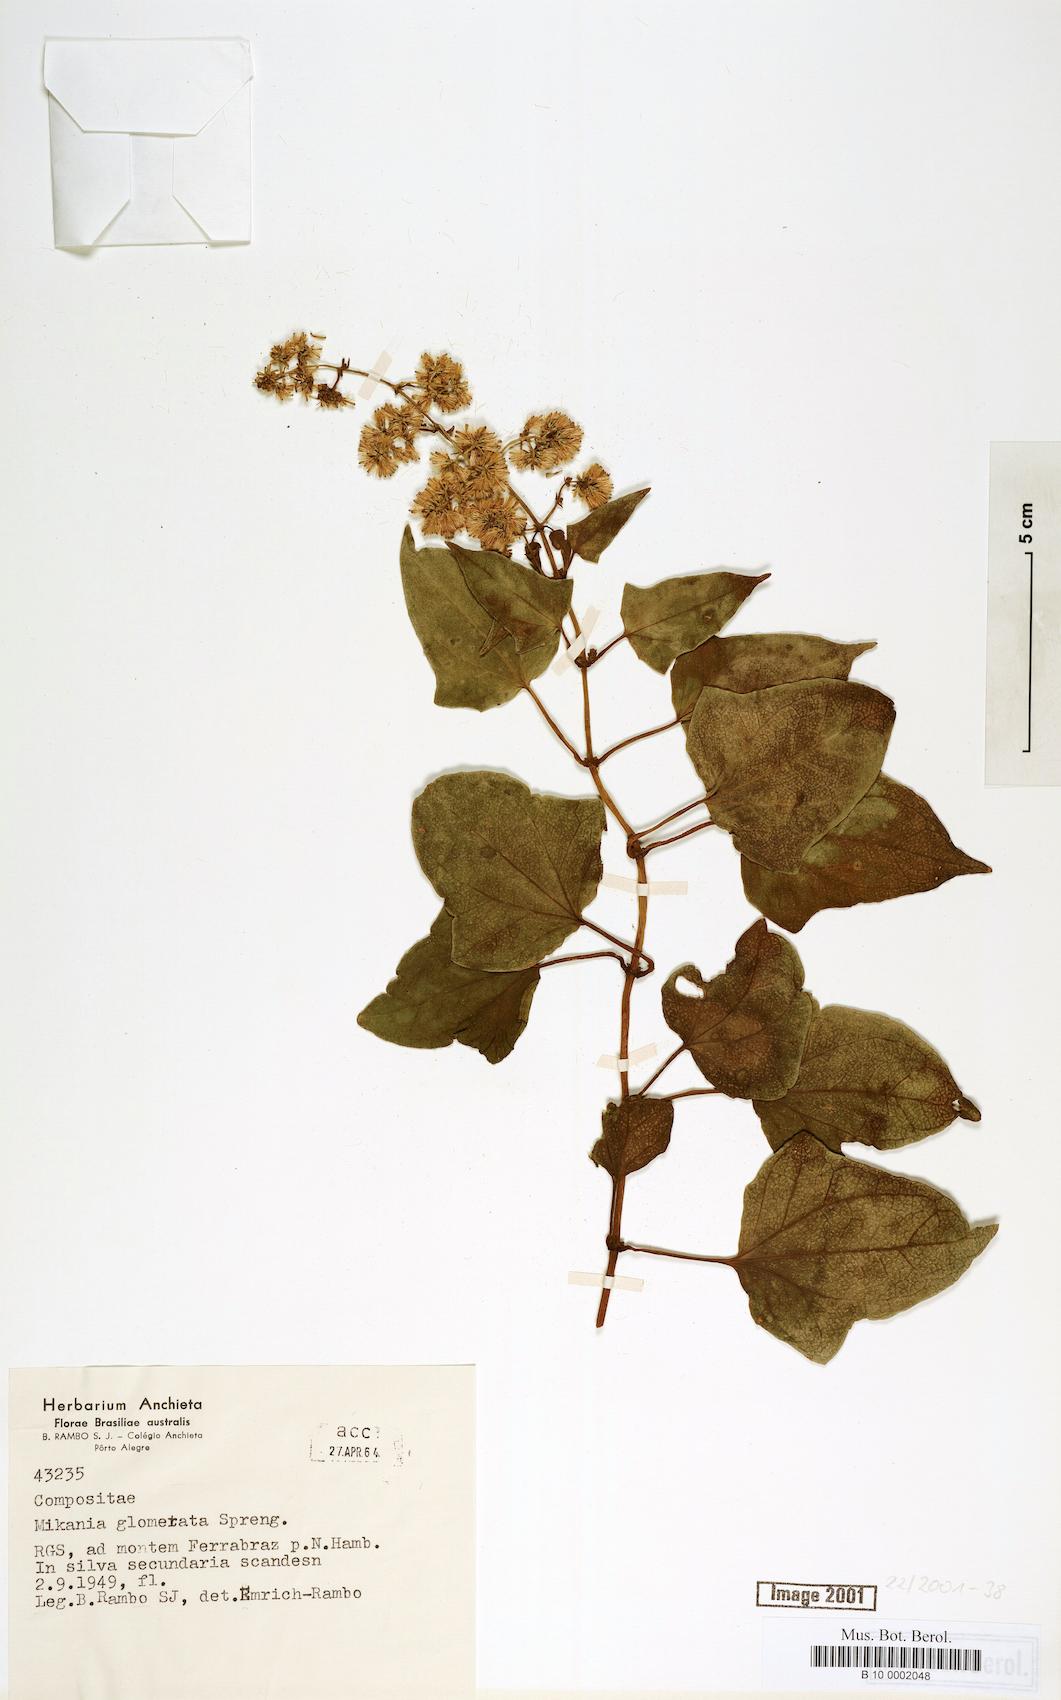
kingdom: Plantae
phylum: Tracheophyta
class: Magnoliopsida
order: Asterales
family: Asteraceae
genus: Mikania
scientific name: Mikania glomerata
